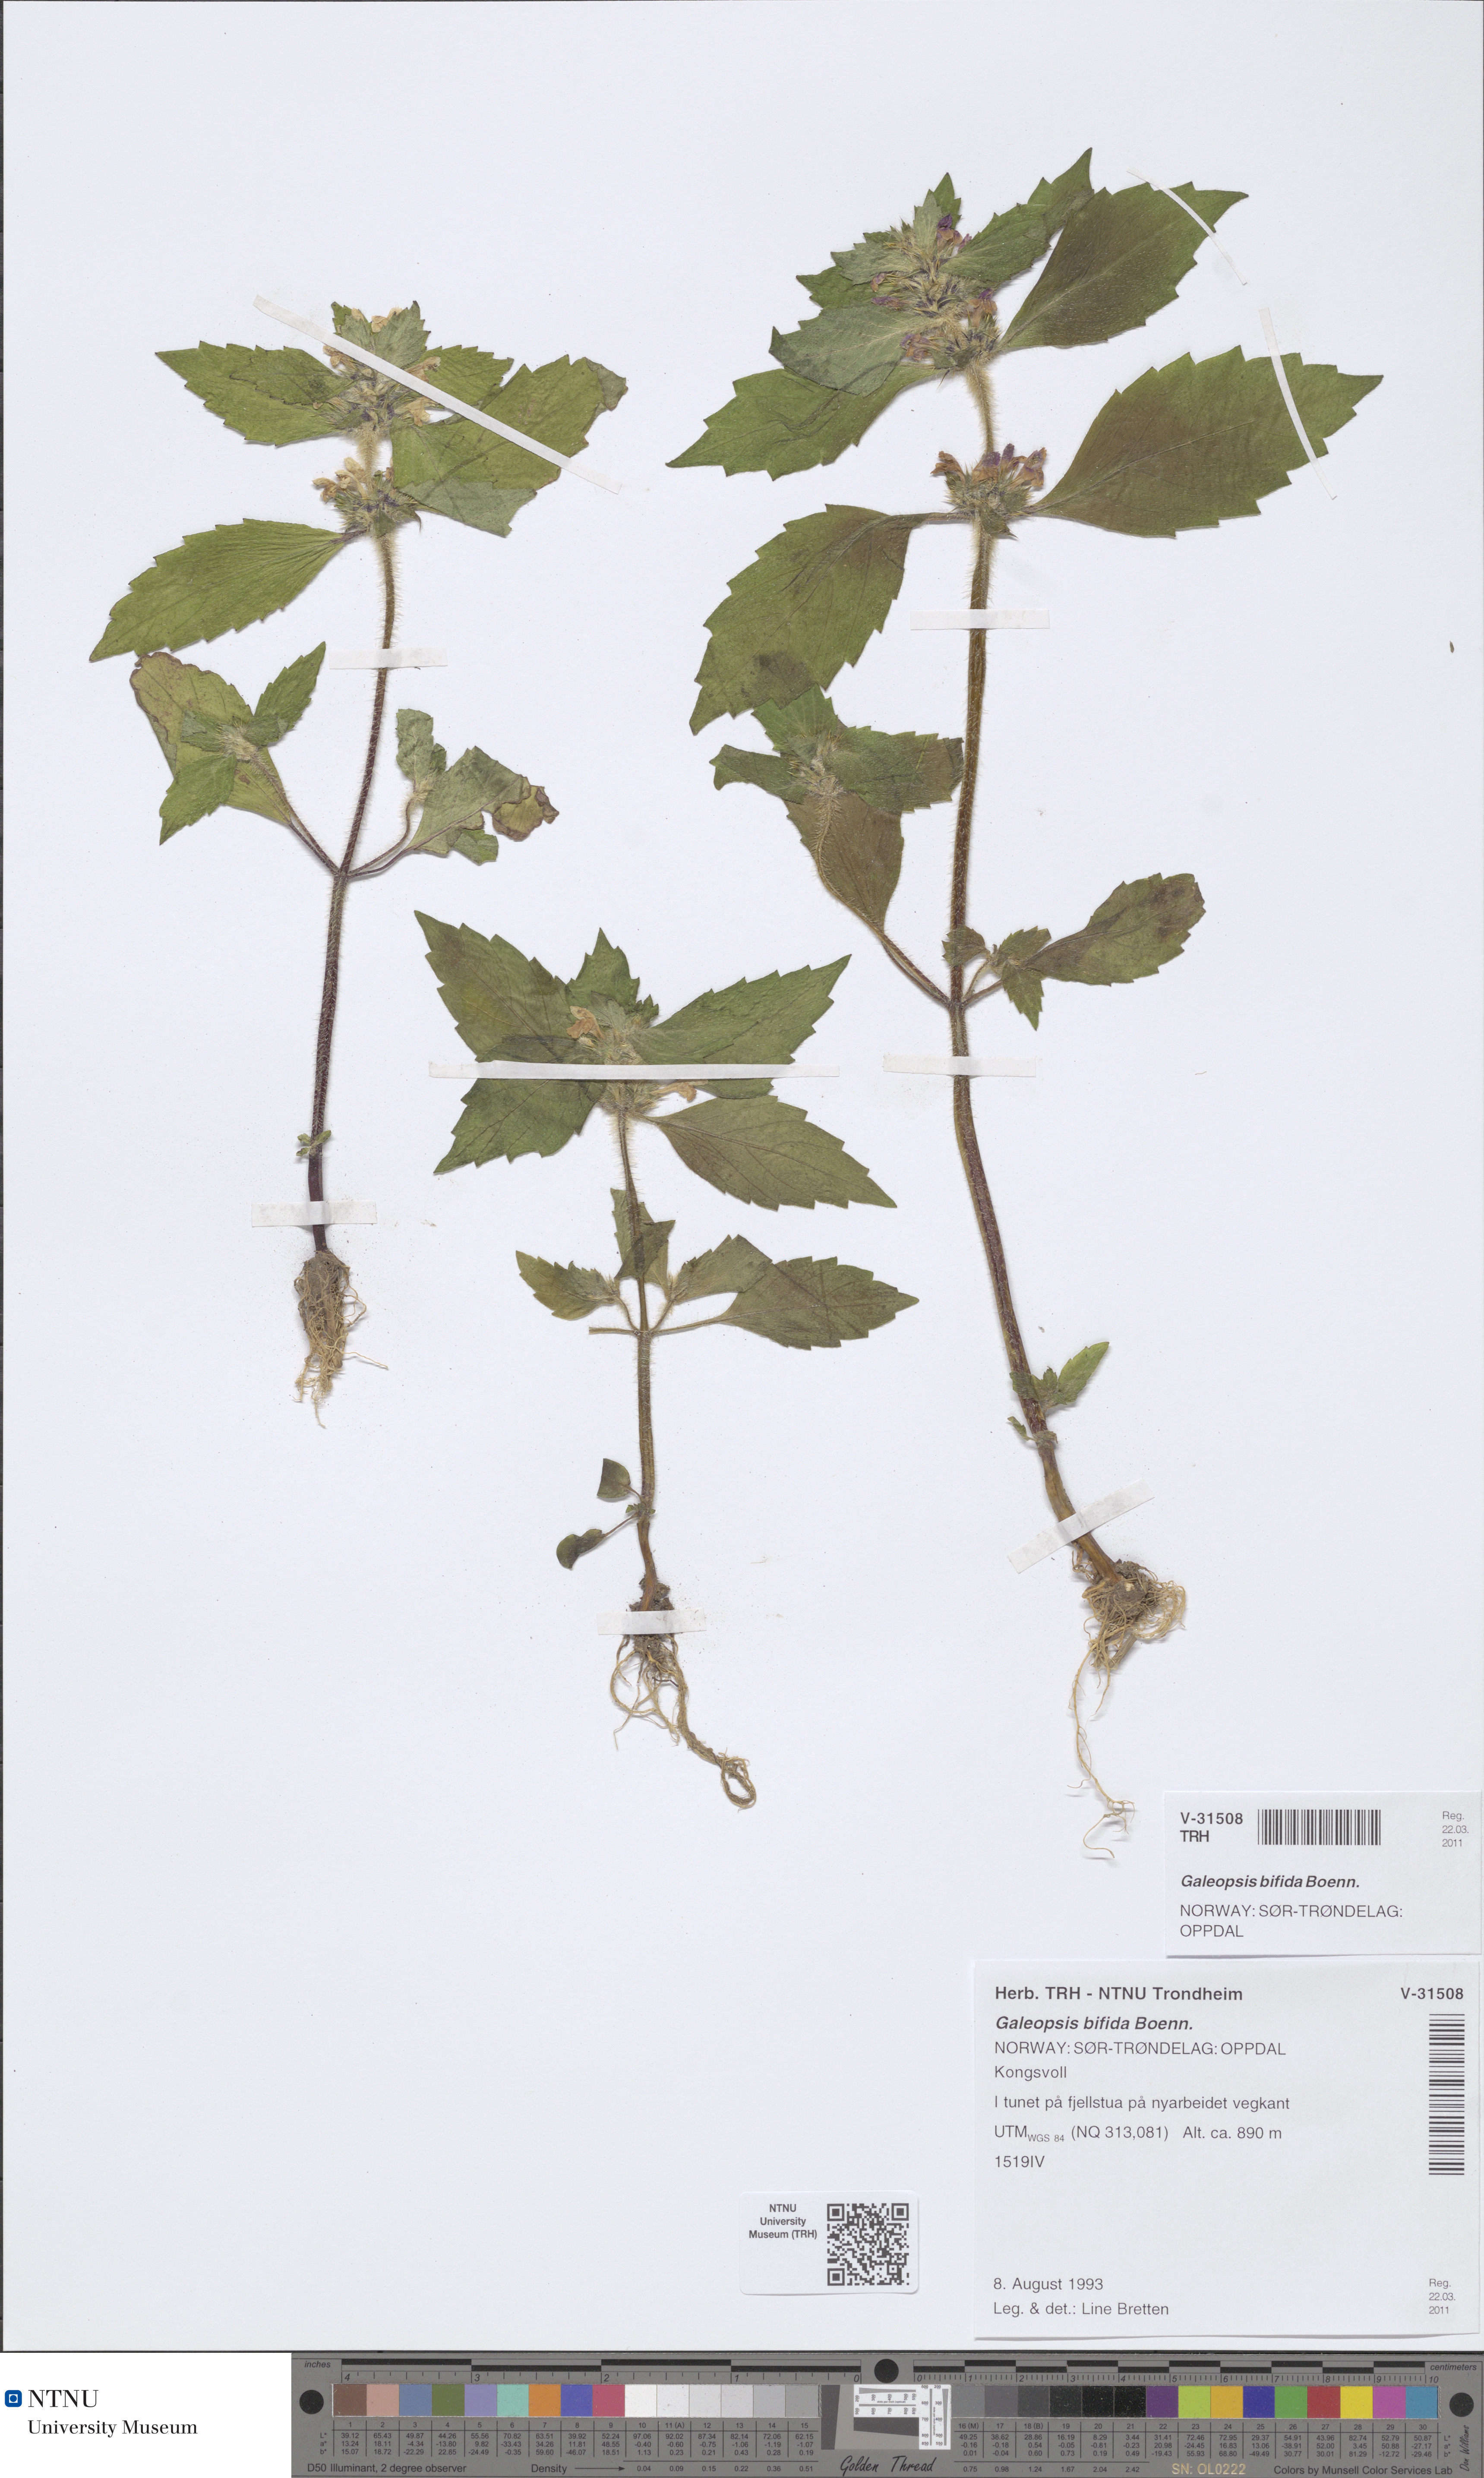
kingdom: Plantae
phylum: Tracheophyta
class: Magnoliopsida
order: Lamiales
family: Lamiaceae
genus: Galeopsis
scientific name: Galeopsis bifida
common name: Bifid hemp-nettle
